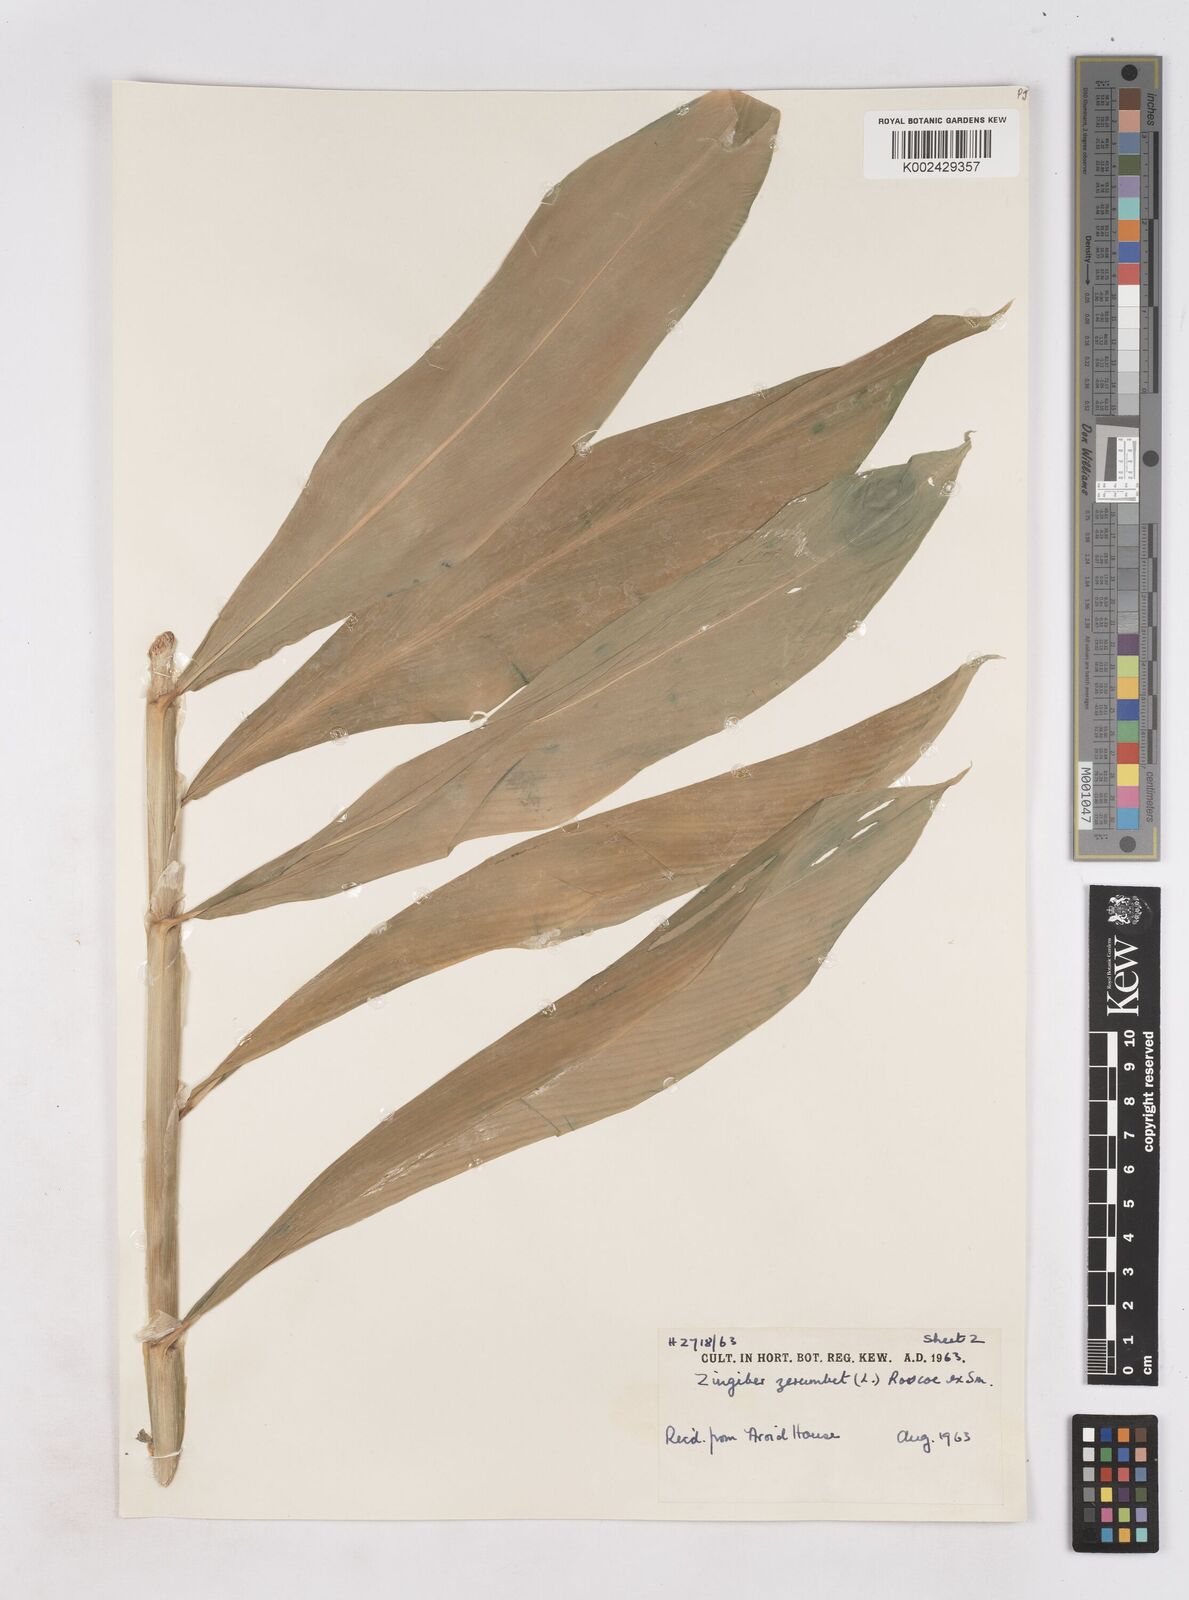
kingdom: Plantae
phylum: Tracheophyta
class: Liliopsida
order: Zingiberales
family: Zingiberaceae
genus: Zingiber
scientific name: Zingiber zerumbet
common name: Bitter ginger
